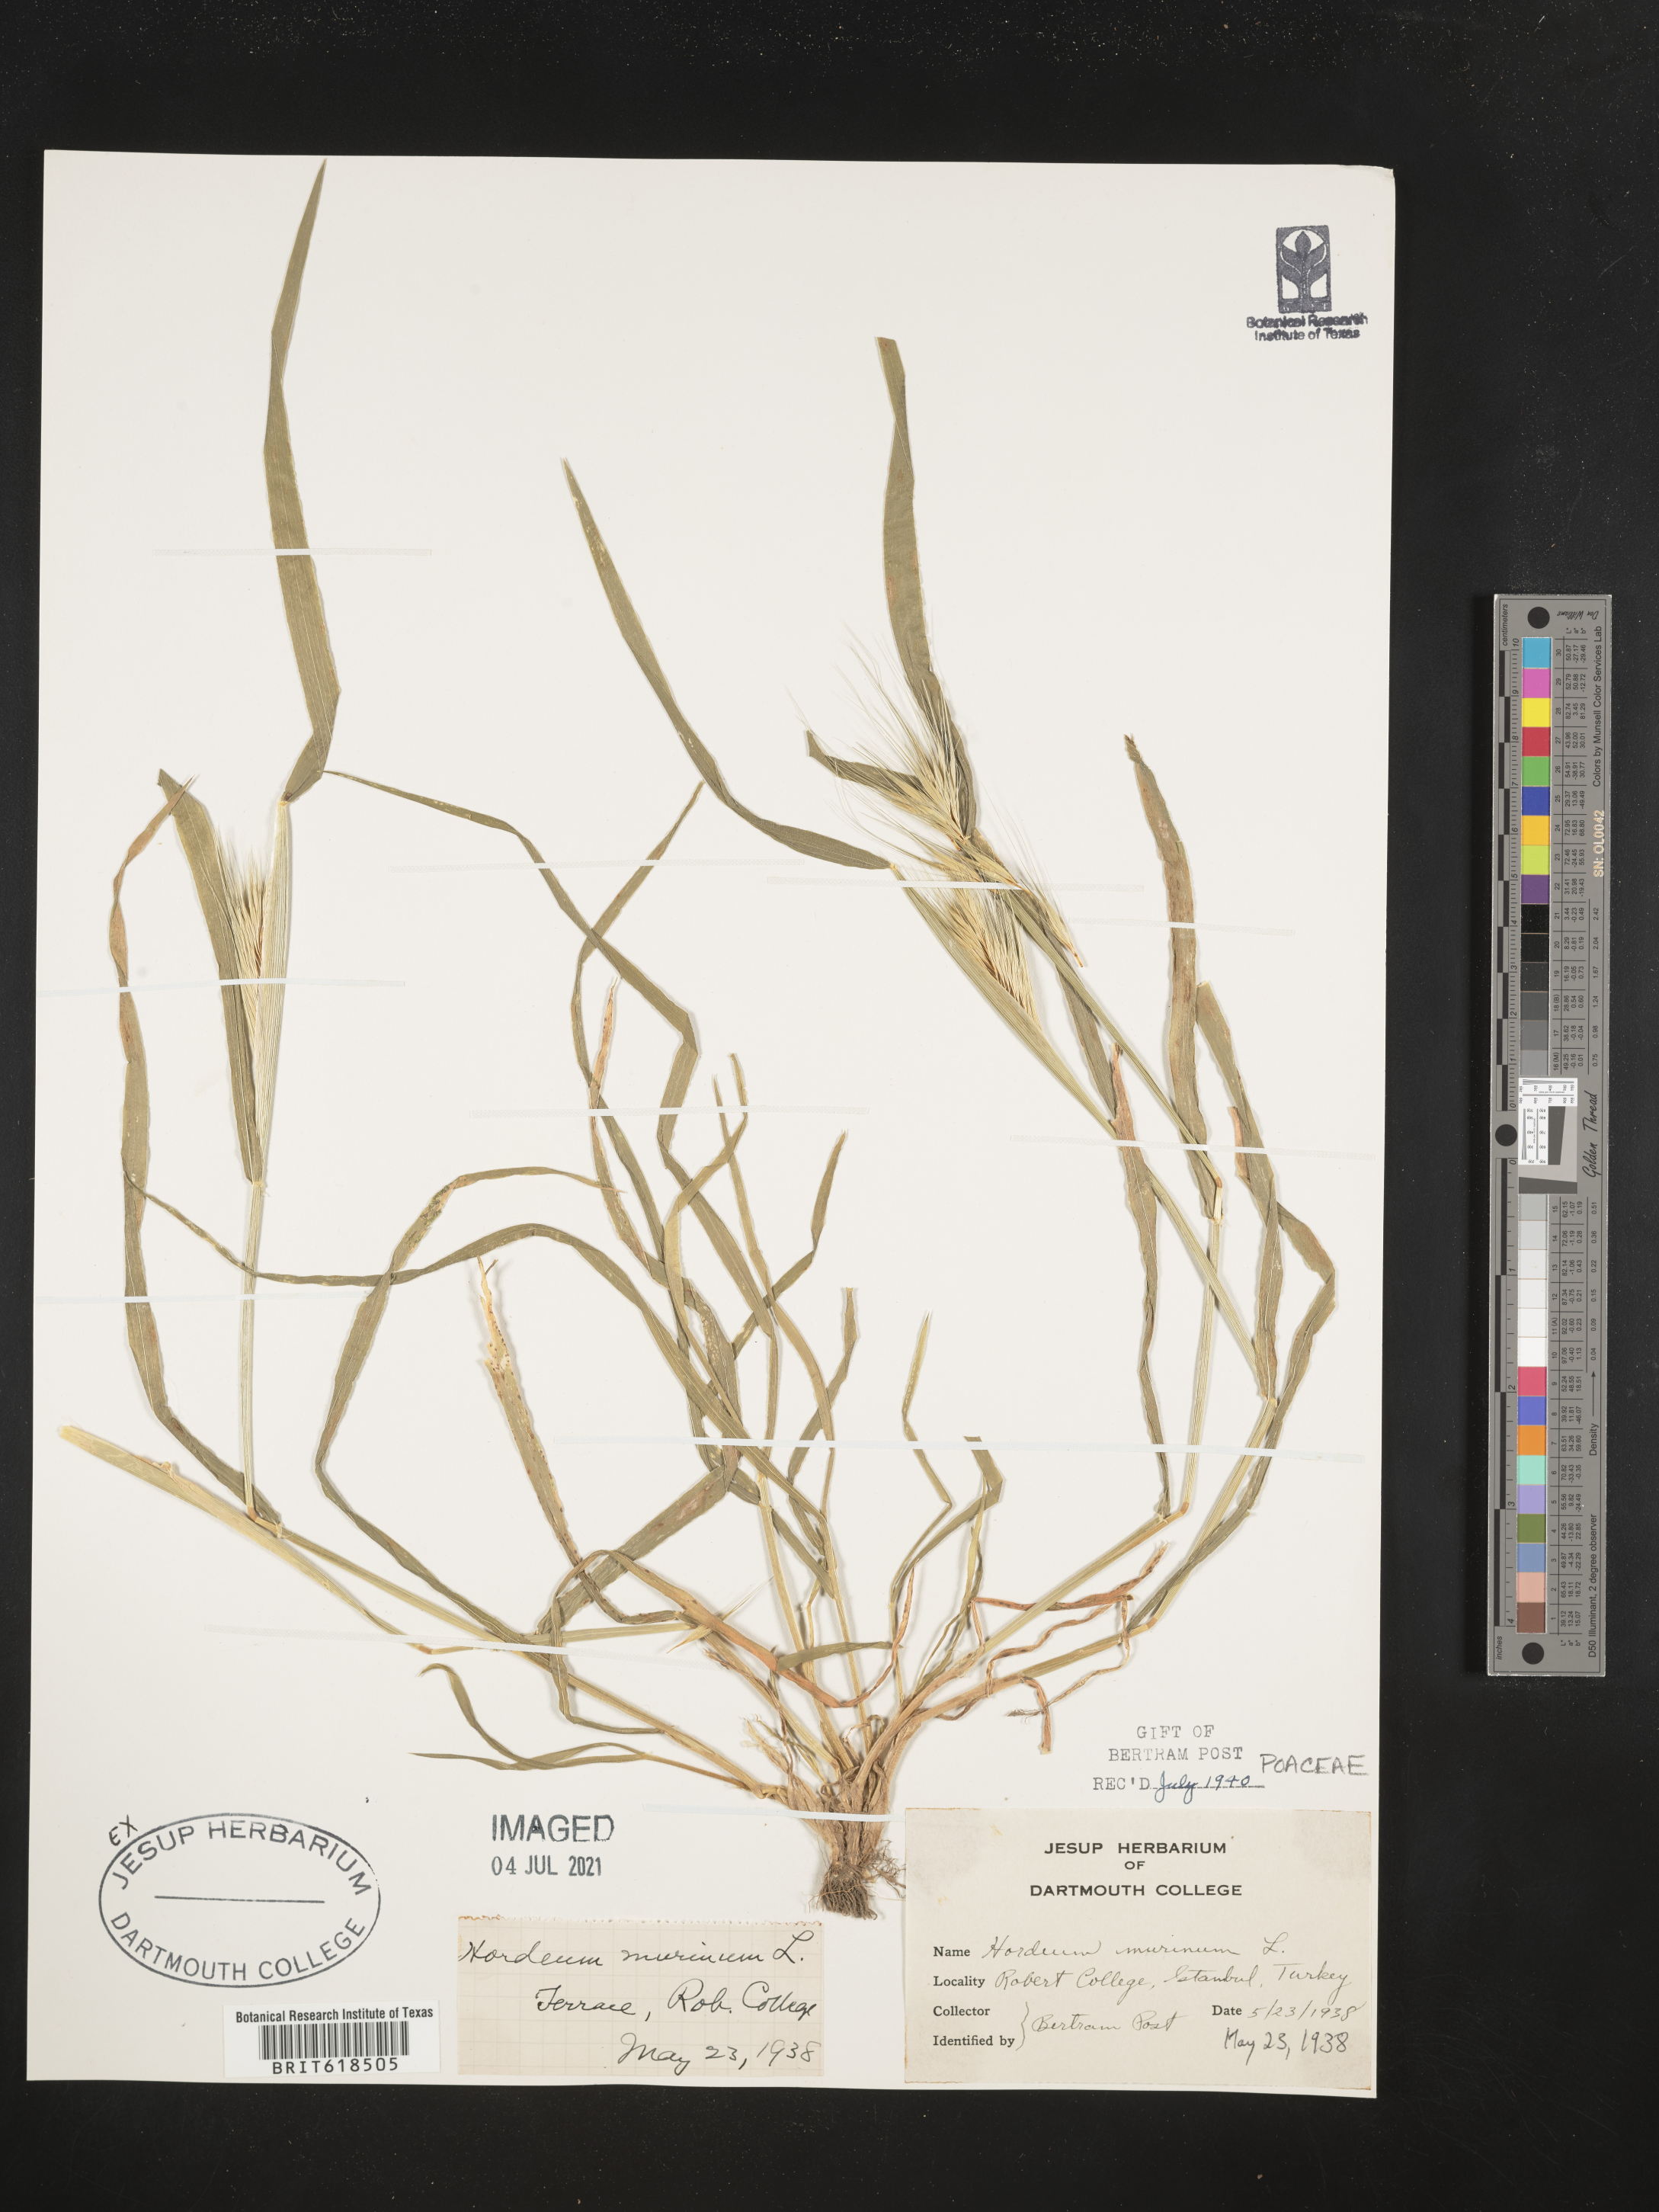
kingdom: Plantae
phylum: Tracheophyta
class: Liliopsida
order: Poales
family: Poaceae
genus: Hordeum
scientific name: Hordeum murinum
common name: Wall barley
